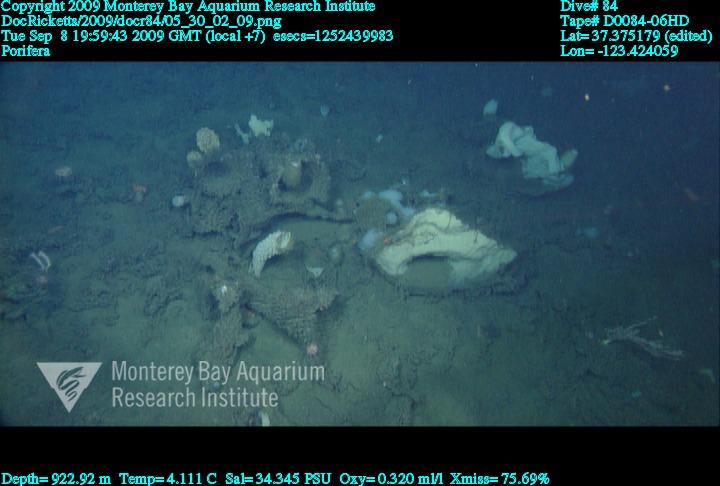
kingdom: Animalia
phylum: Porifera
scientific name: Porifera
